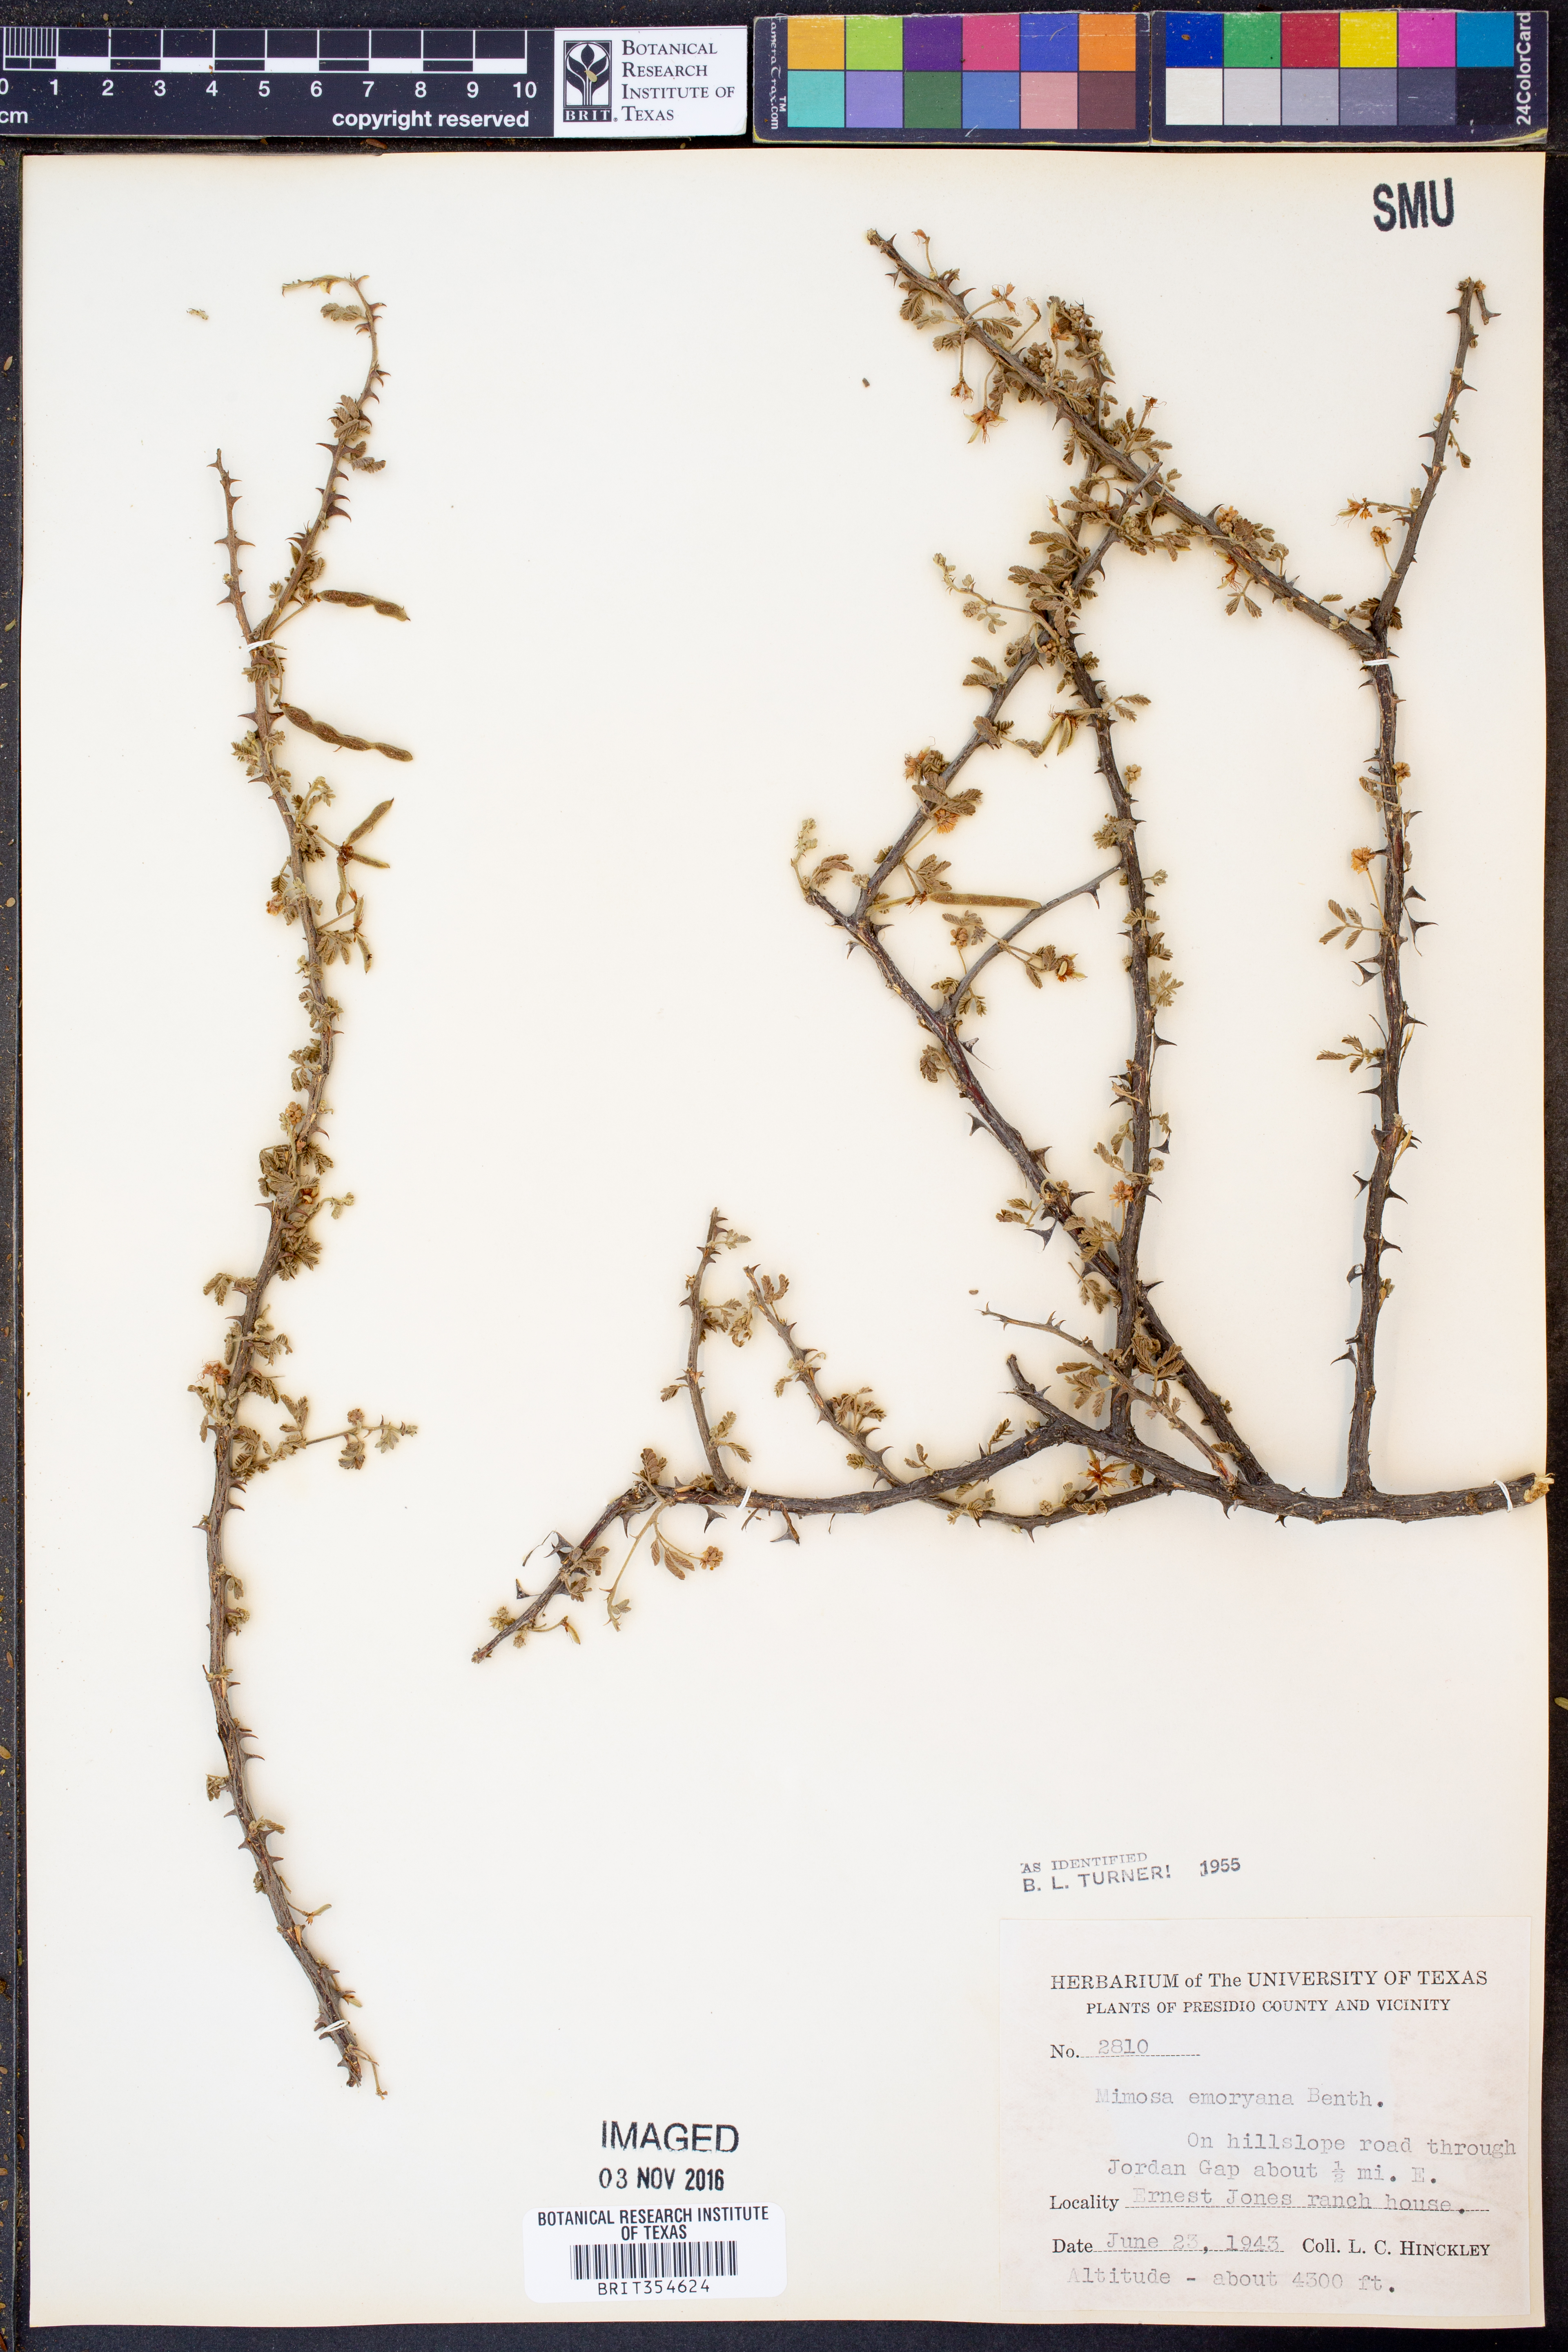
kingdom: Plantae
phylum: Tracheophyta
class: Magnoliopsida
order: Fabales
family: Fabaceae
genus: Mimosa
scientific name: Mimosa emoryana
